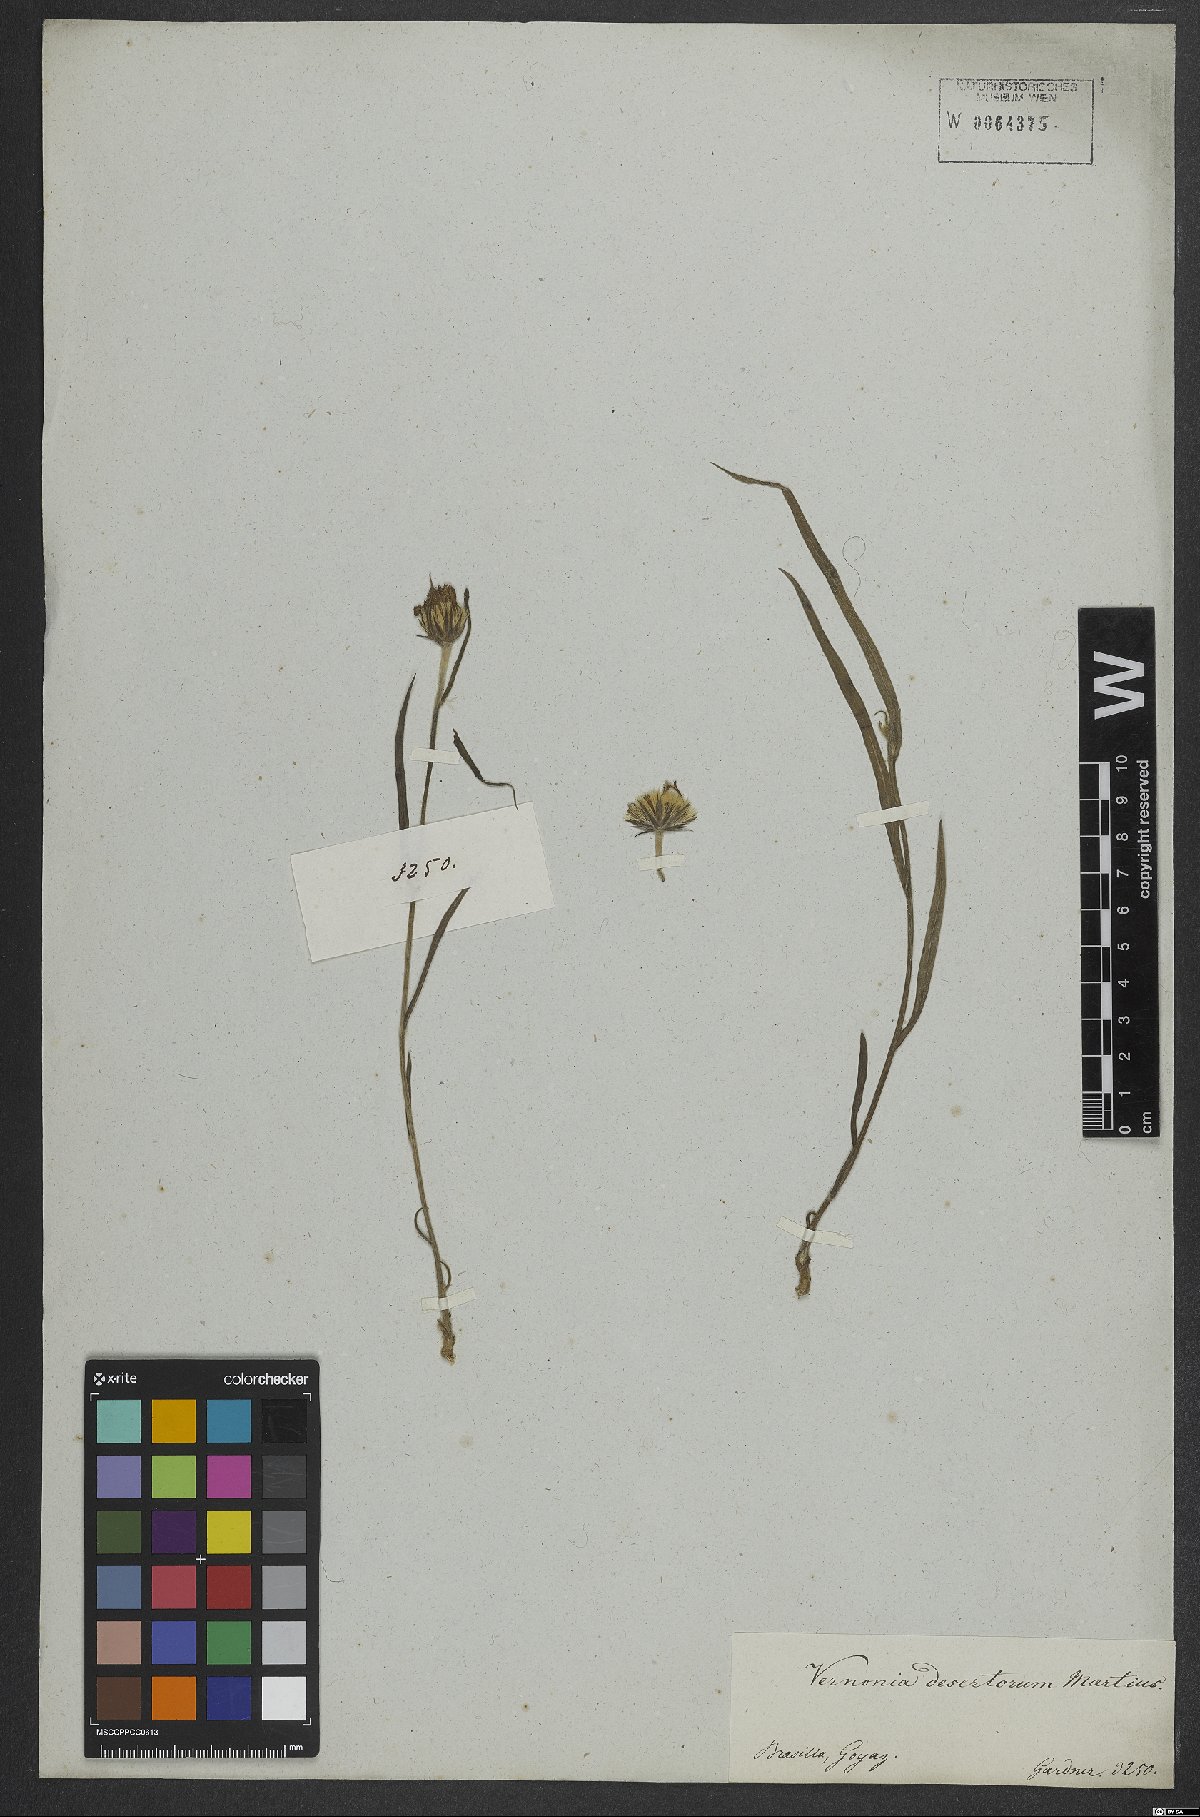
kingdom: Plantae
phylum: Tracheophyta
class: Magnoliopsida
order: Asterales
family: Asteraceae
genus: Chrysolaena
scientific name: Chrysolaena desertorum
